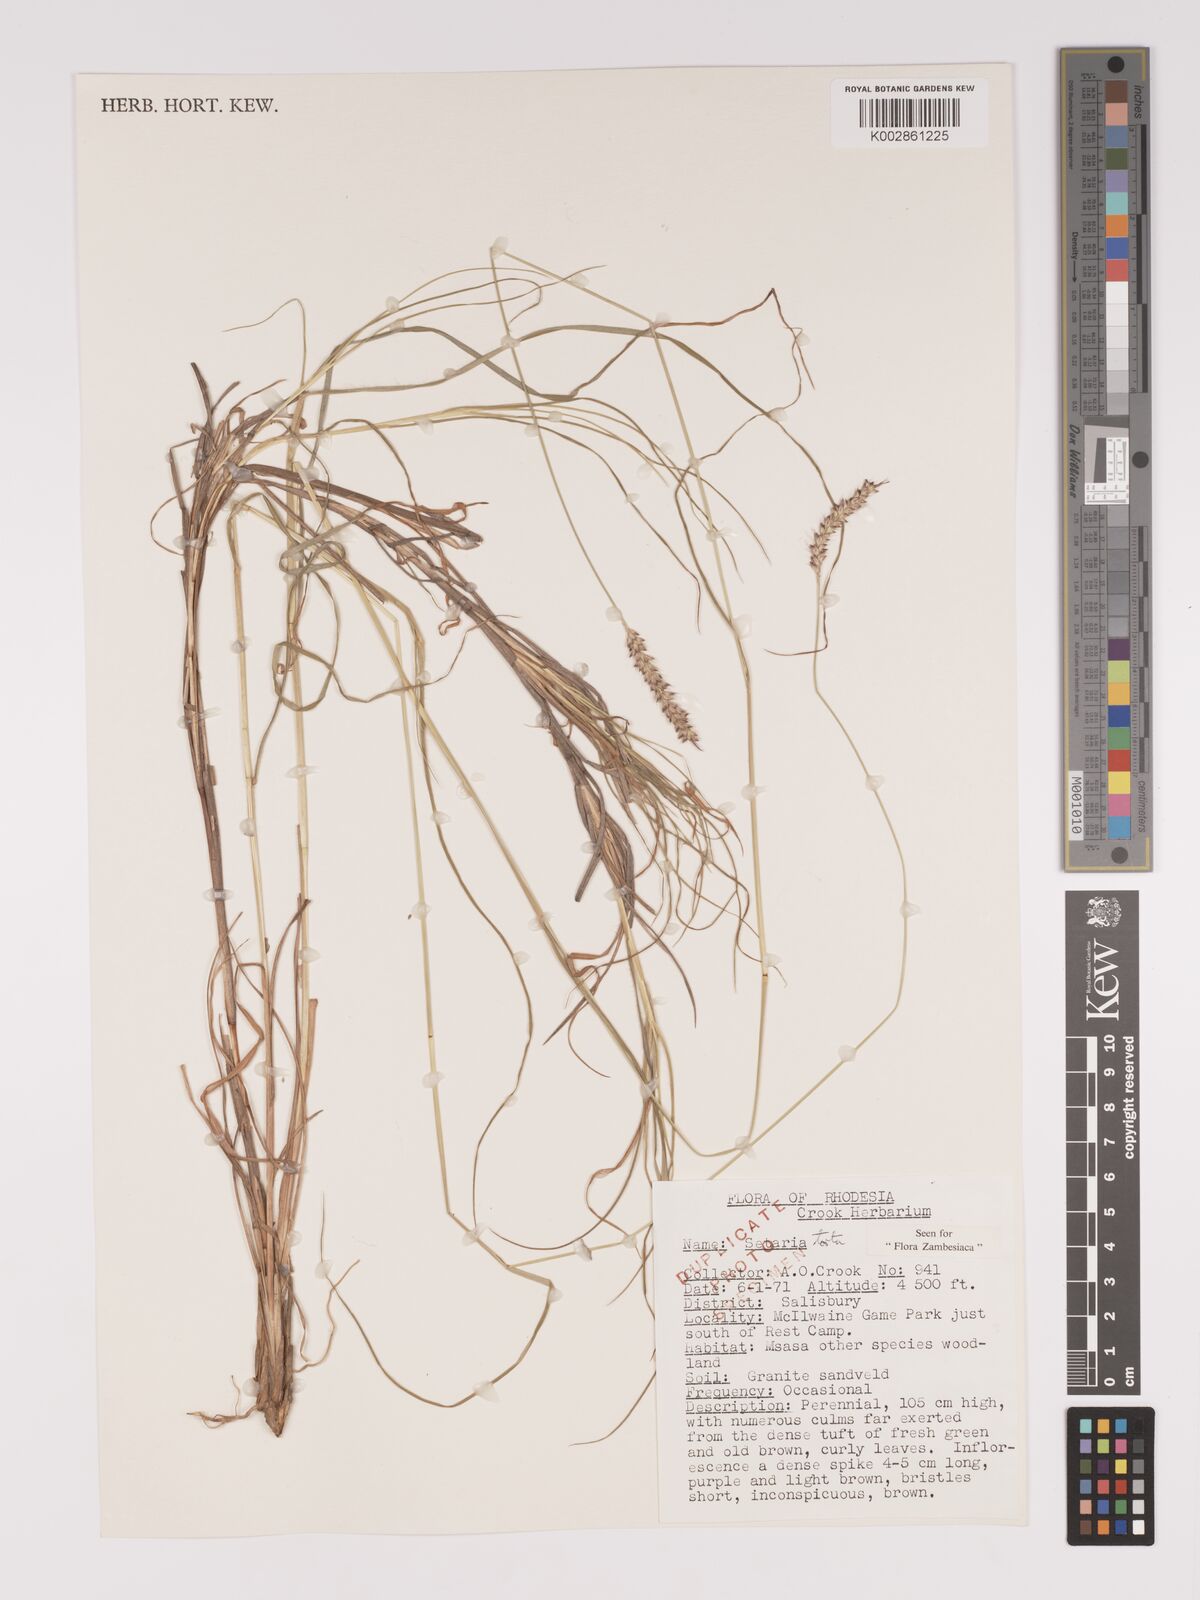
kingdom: Plantae
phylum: Tracheophyta
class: Liliopsida
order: Poales
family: Poaceae
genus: Setaria
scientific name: Setaria sphacelata
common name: African bristlegrass
